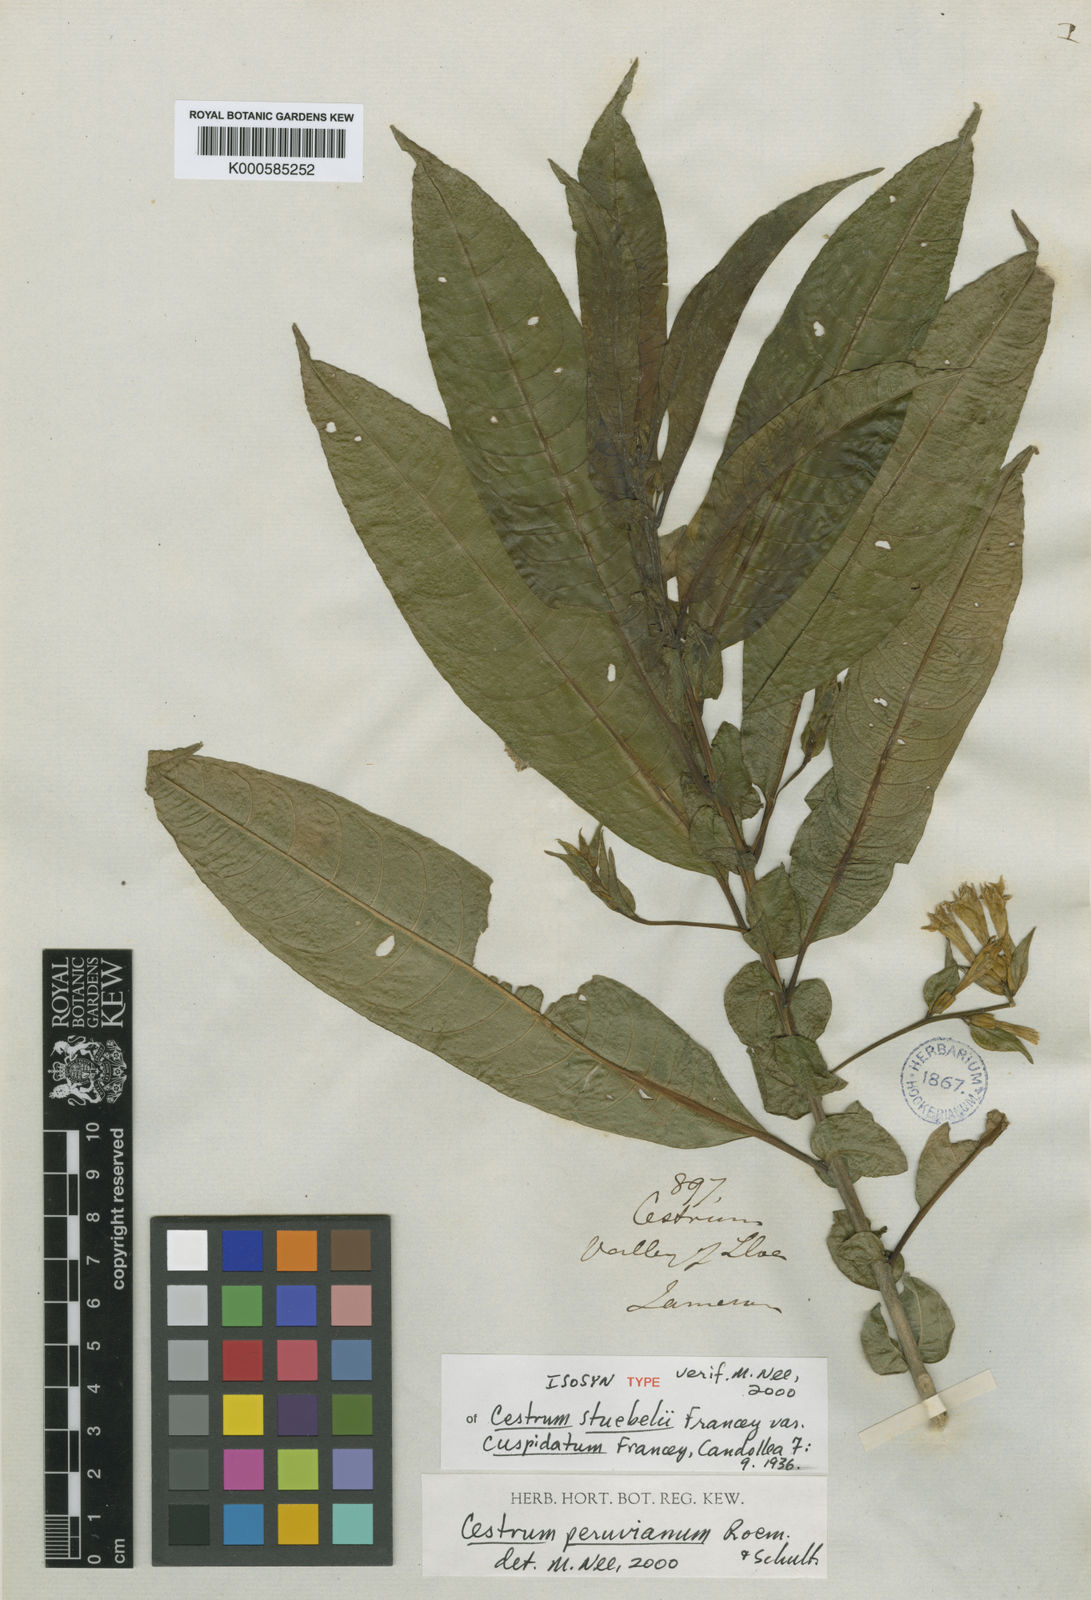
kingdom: Plantae
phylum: Tracheophyta
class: Magnoliopsida
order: Solanales
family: Solanaceae
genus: Cestrum
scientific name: Cestrum stuebelii
